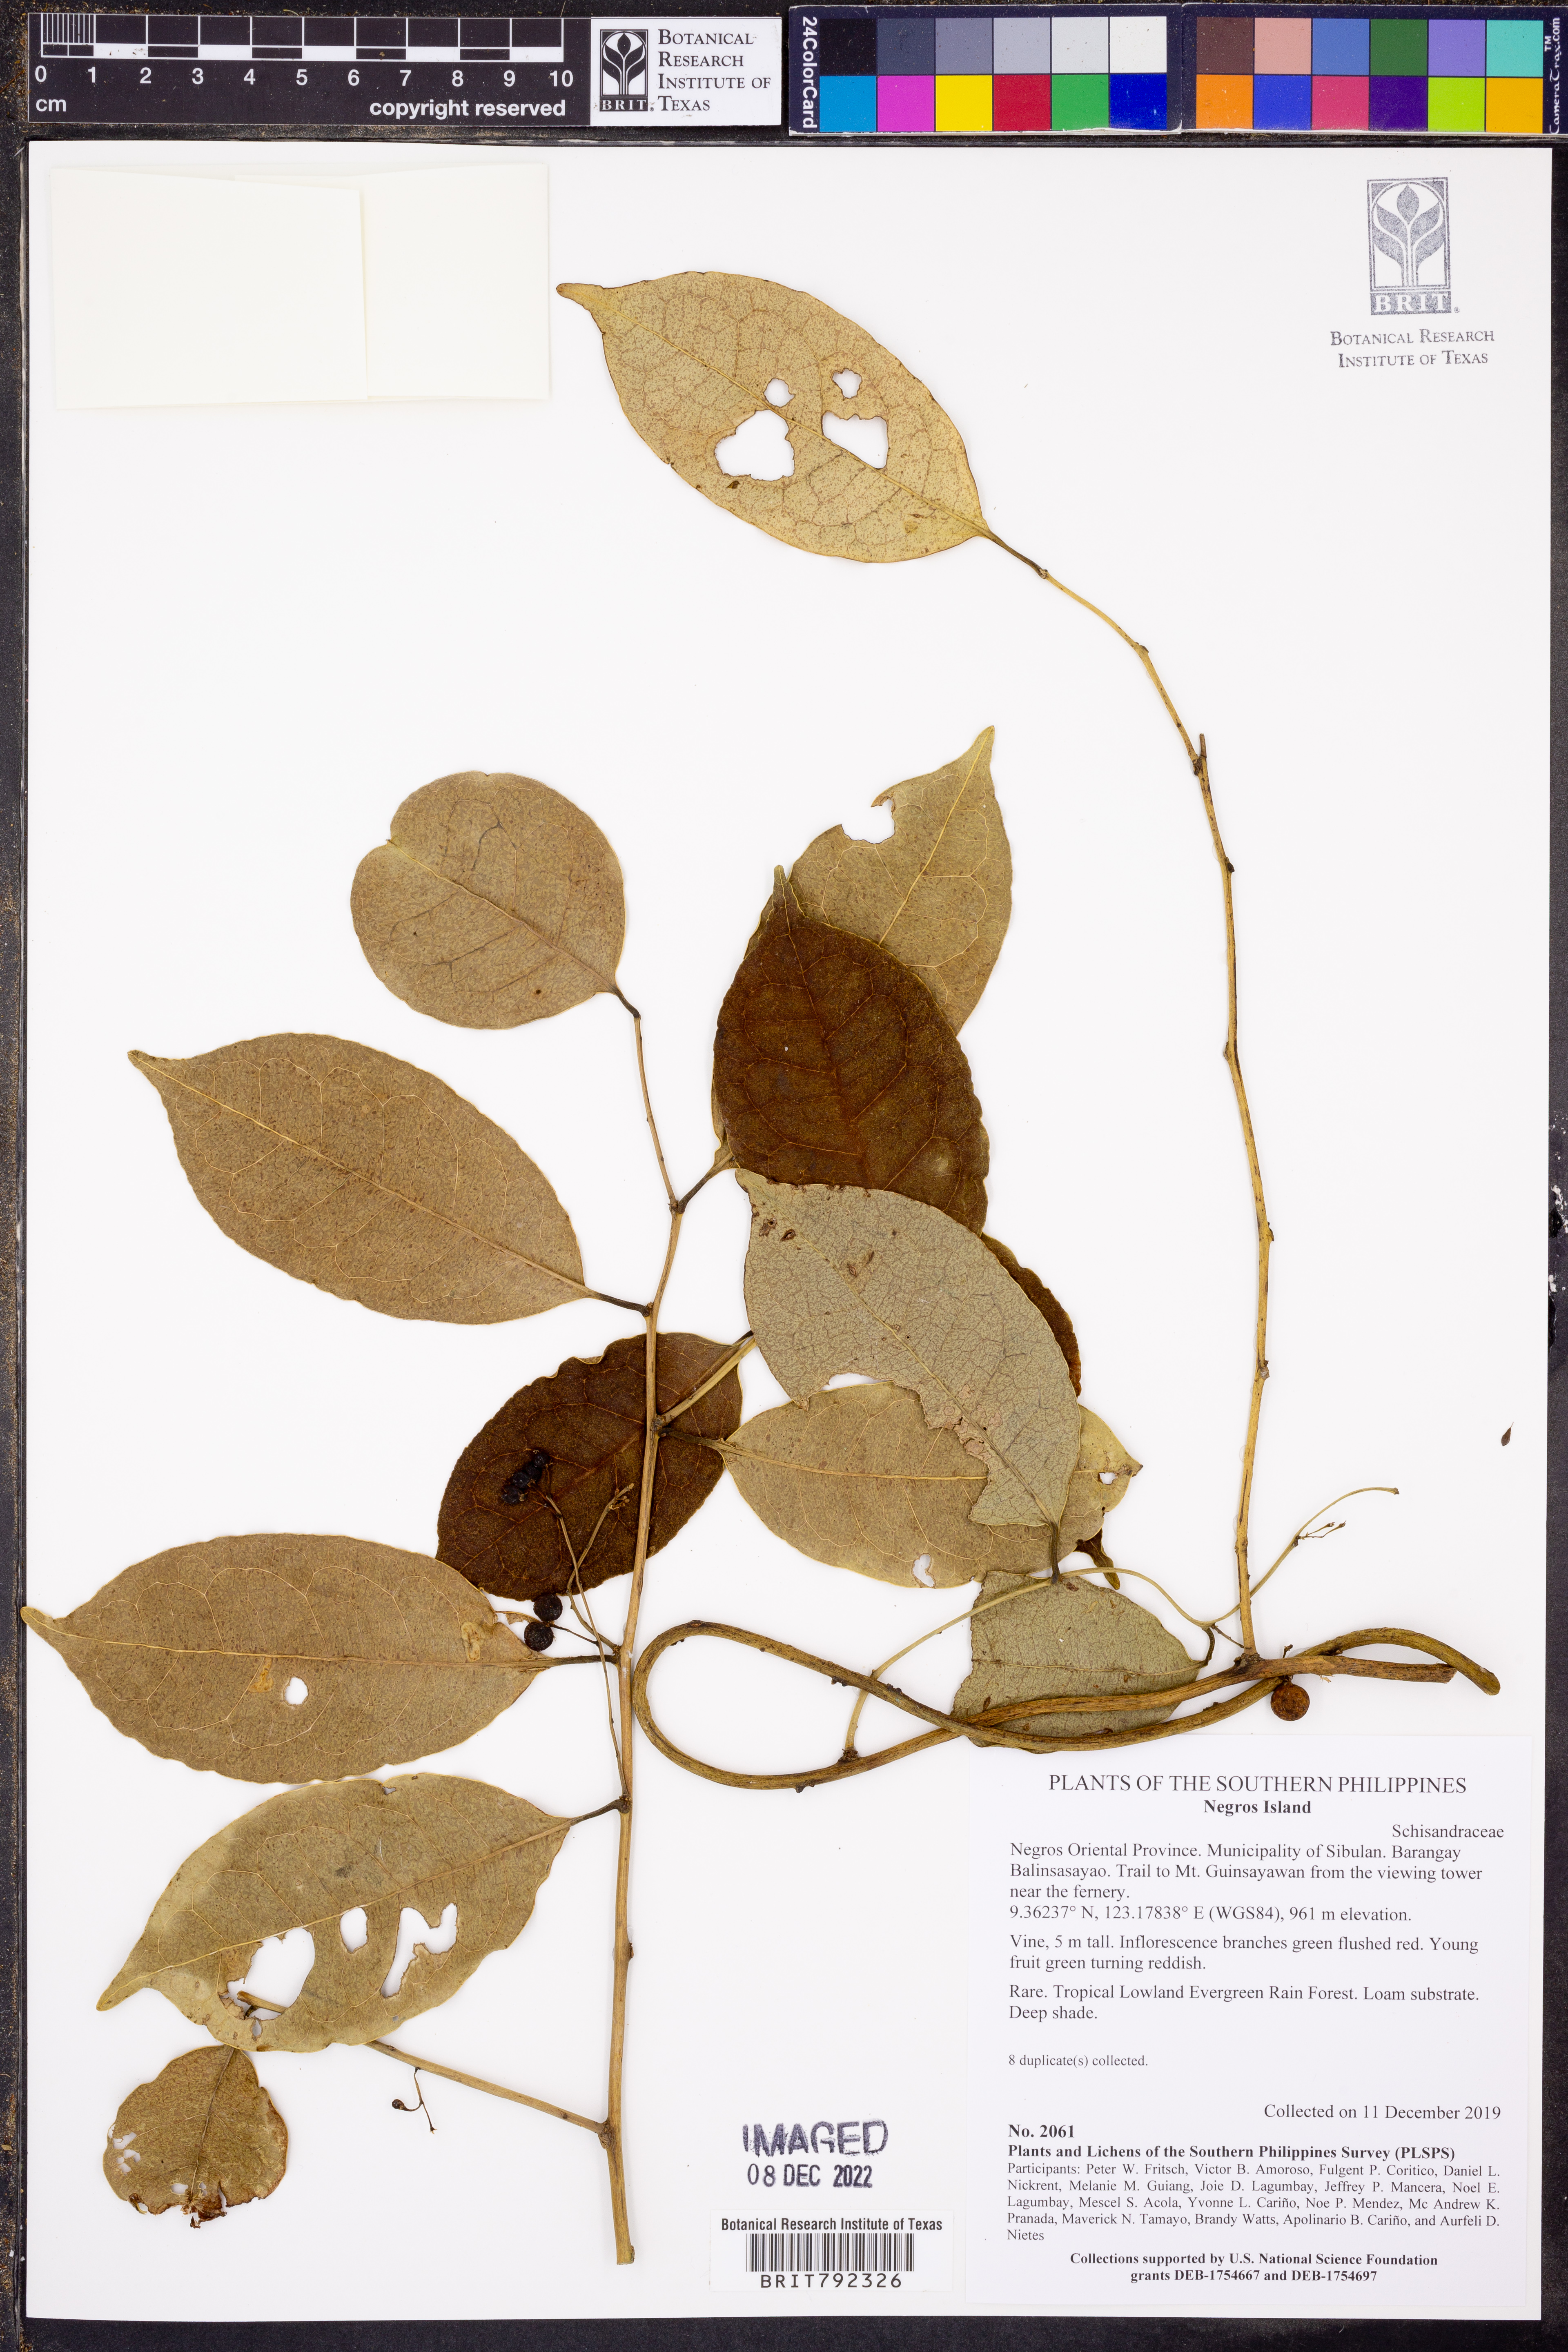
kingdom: Plantae
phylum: Tracheophyta
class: Magnoliopsida
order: Austrobaileyales
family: Schisandraceae
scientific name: Schisandraceae
